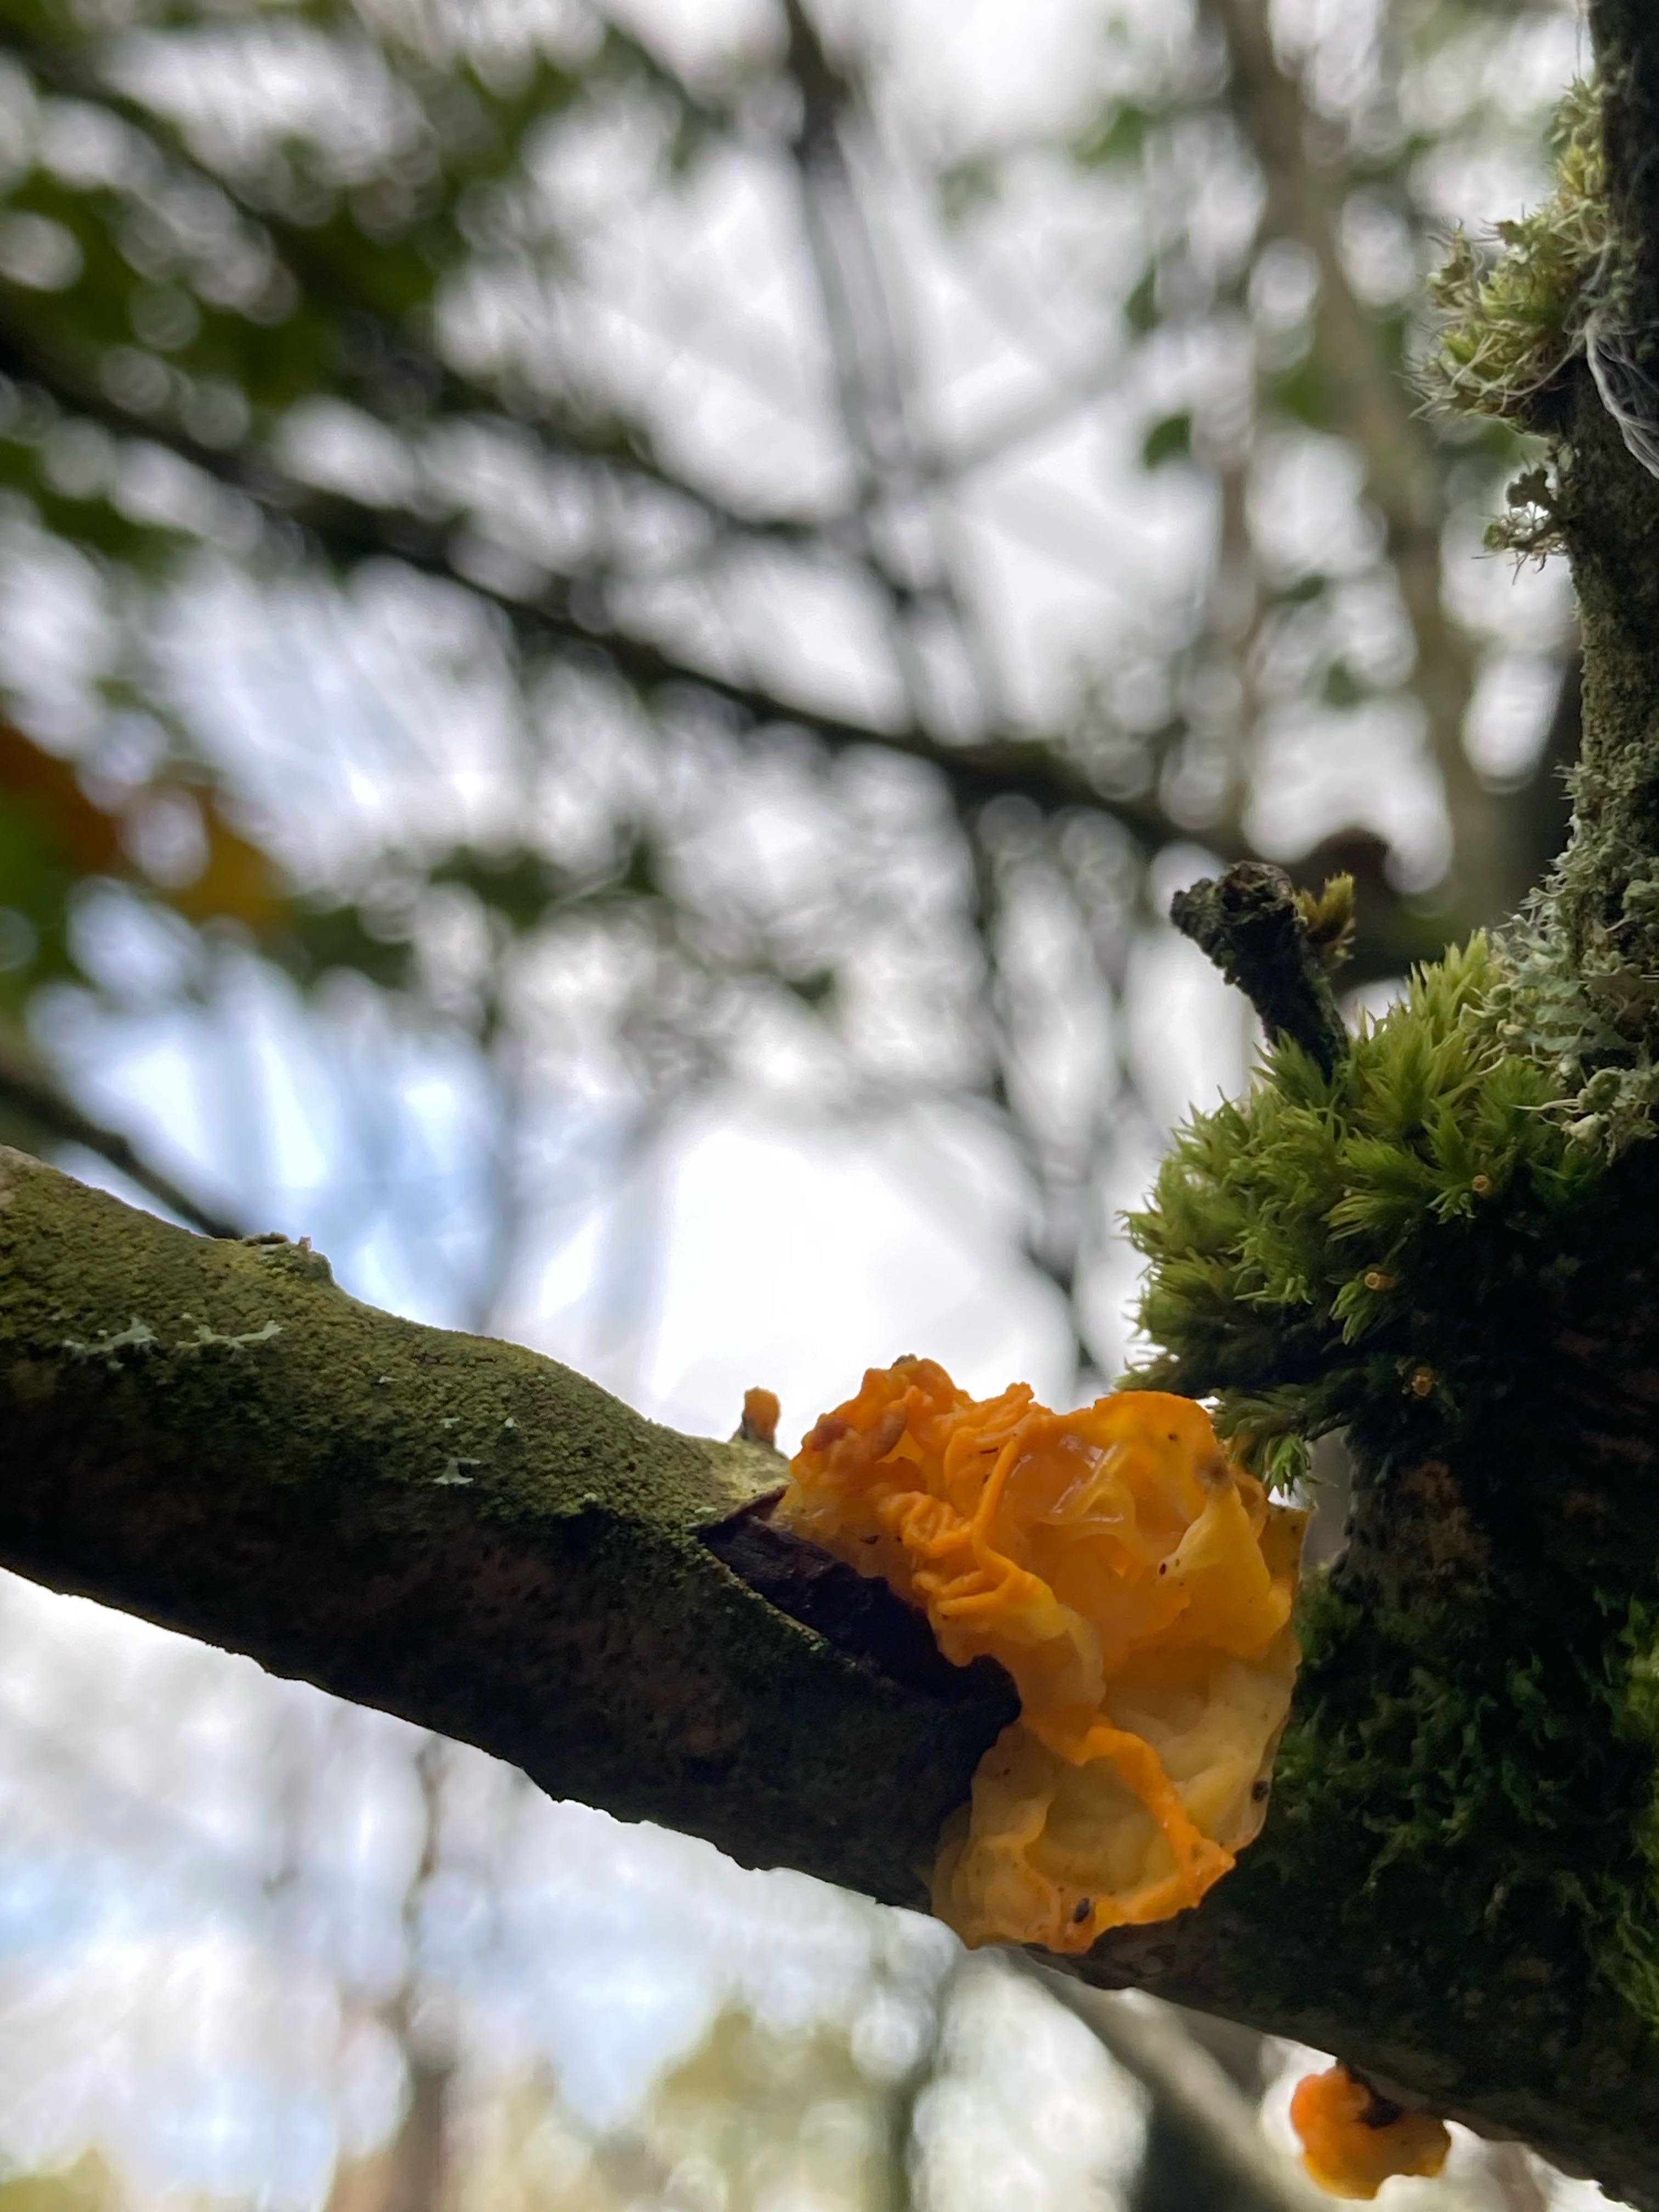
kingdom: Fungi
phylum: Basidiomycota
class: Tremellomycetes
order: Tremellales
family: Tremellaceae
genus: Tremella
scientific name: Tremella mesenterica
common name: gul bævresvamp
